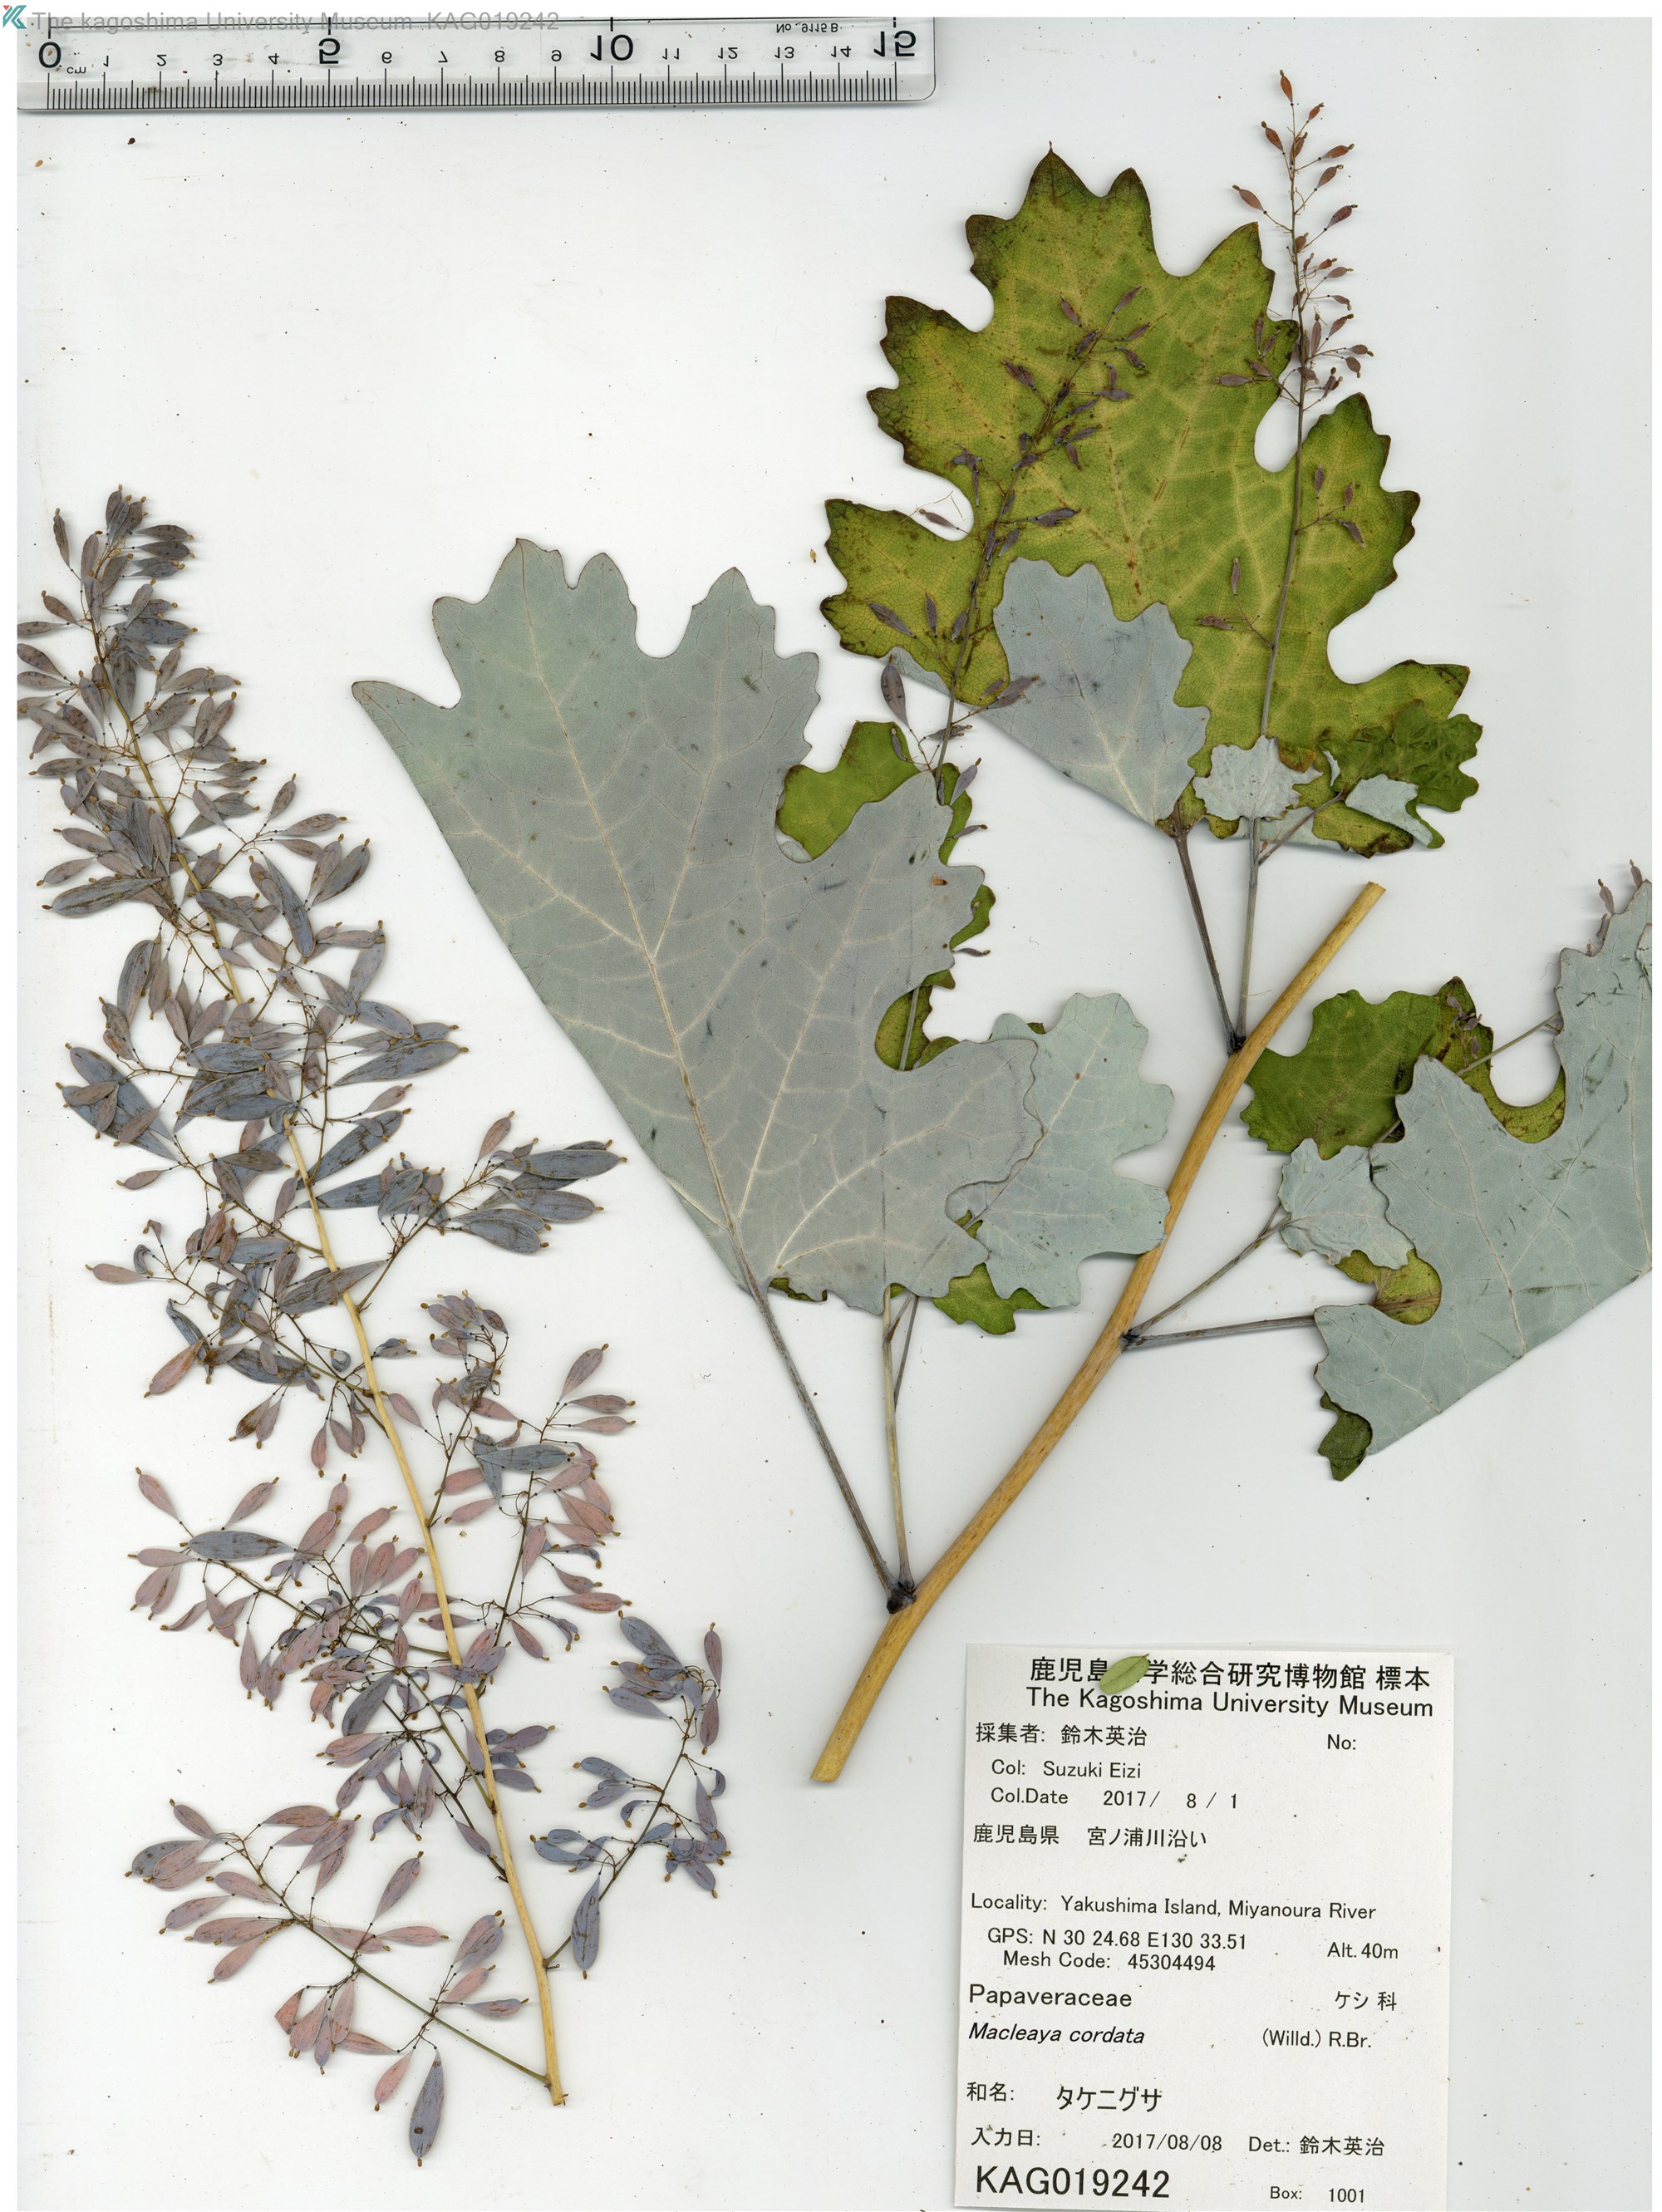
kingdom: Plantae
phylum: Tracheophyta
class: Magnoliopsida
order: Ranunculales
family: Papaveraceae
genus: Macleaya
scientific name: Macleaya cordata
